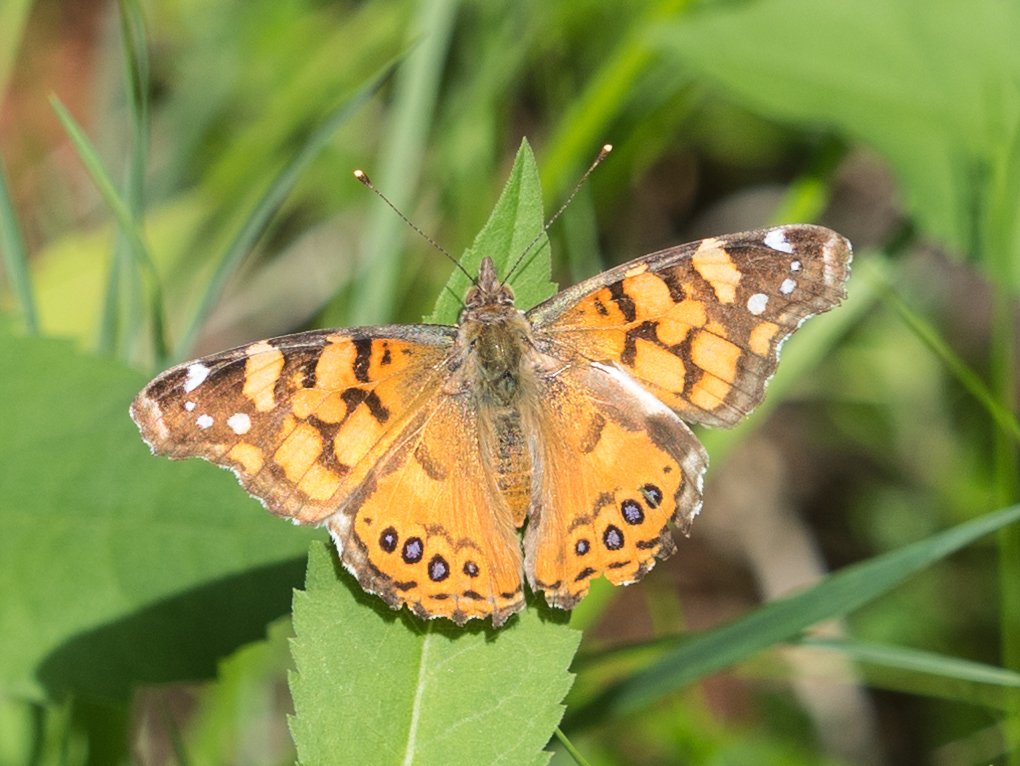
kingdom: Animalia
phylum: Arthropoda
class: Insecta
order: Lepidoptera
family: Nymphalidae
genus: Vanessa
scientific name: Vanessa annabella
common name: West Coast Lady
